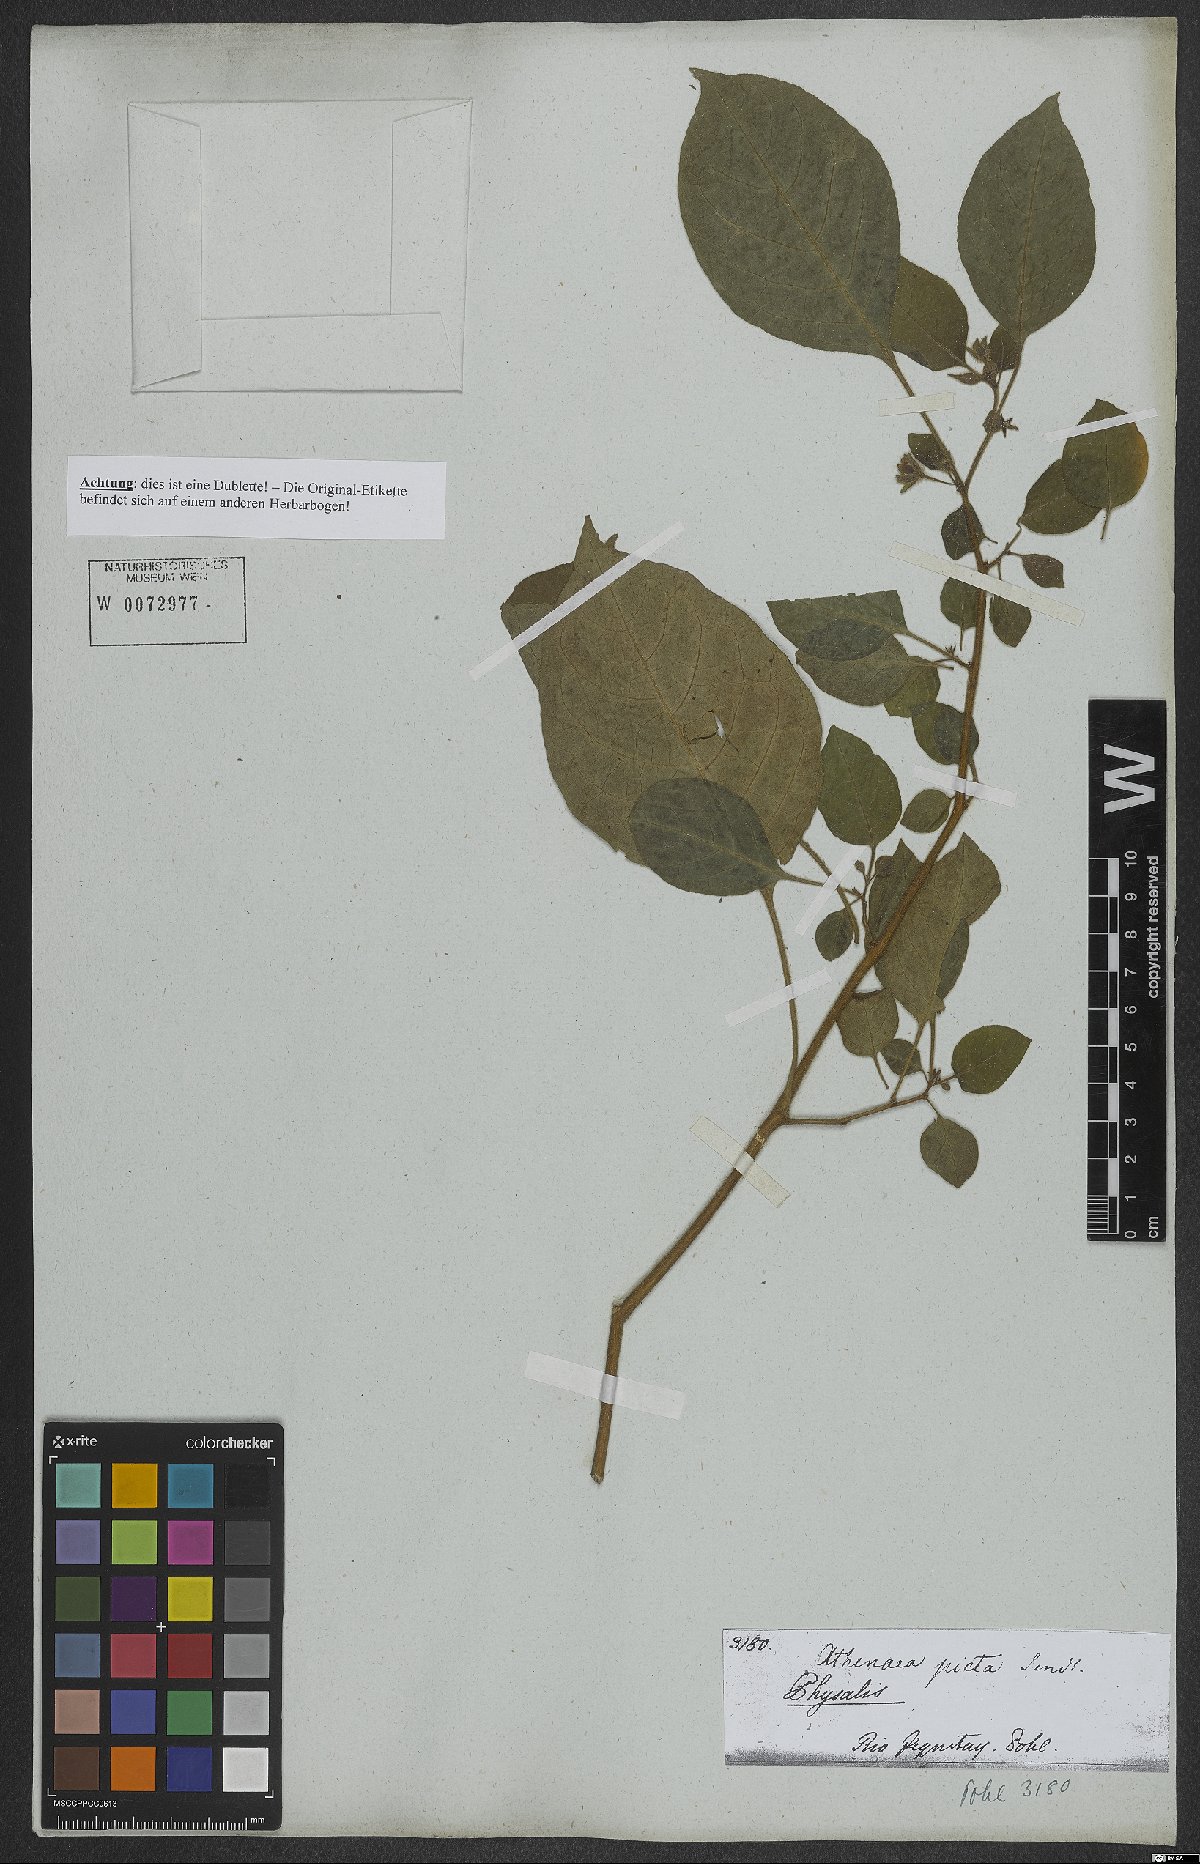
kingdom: Plantae
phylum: Tracheophyta
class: Magnoliopsida
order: Solanales
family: Solanaceae
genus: Physalis
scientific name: Physalis
